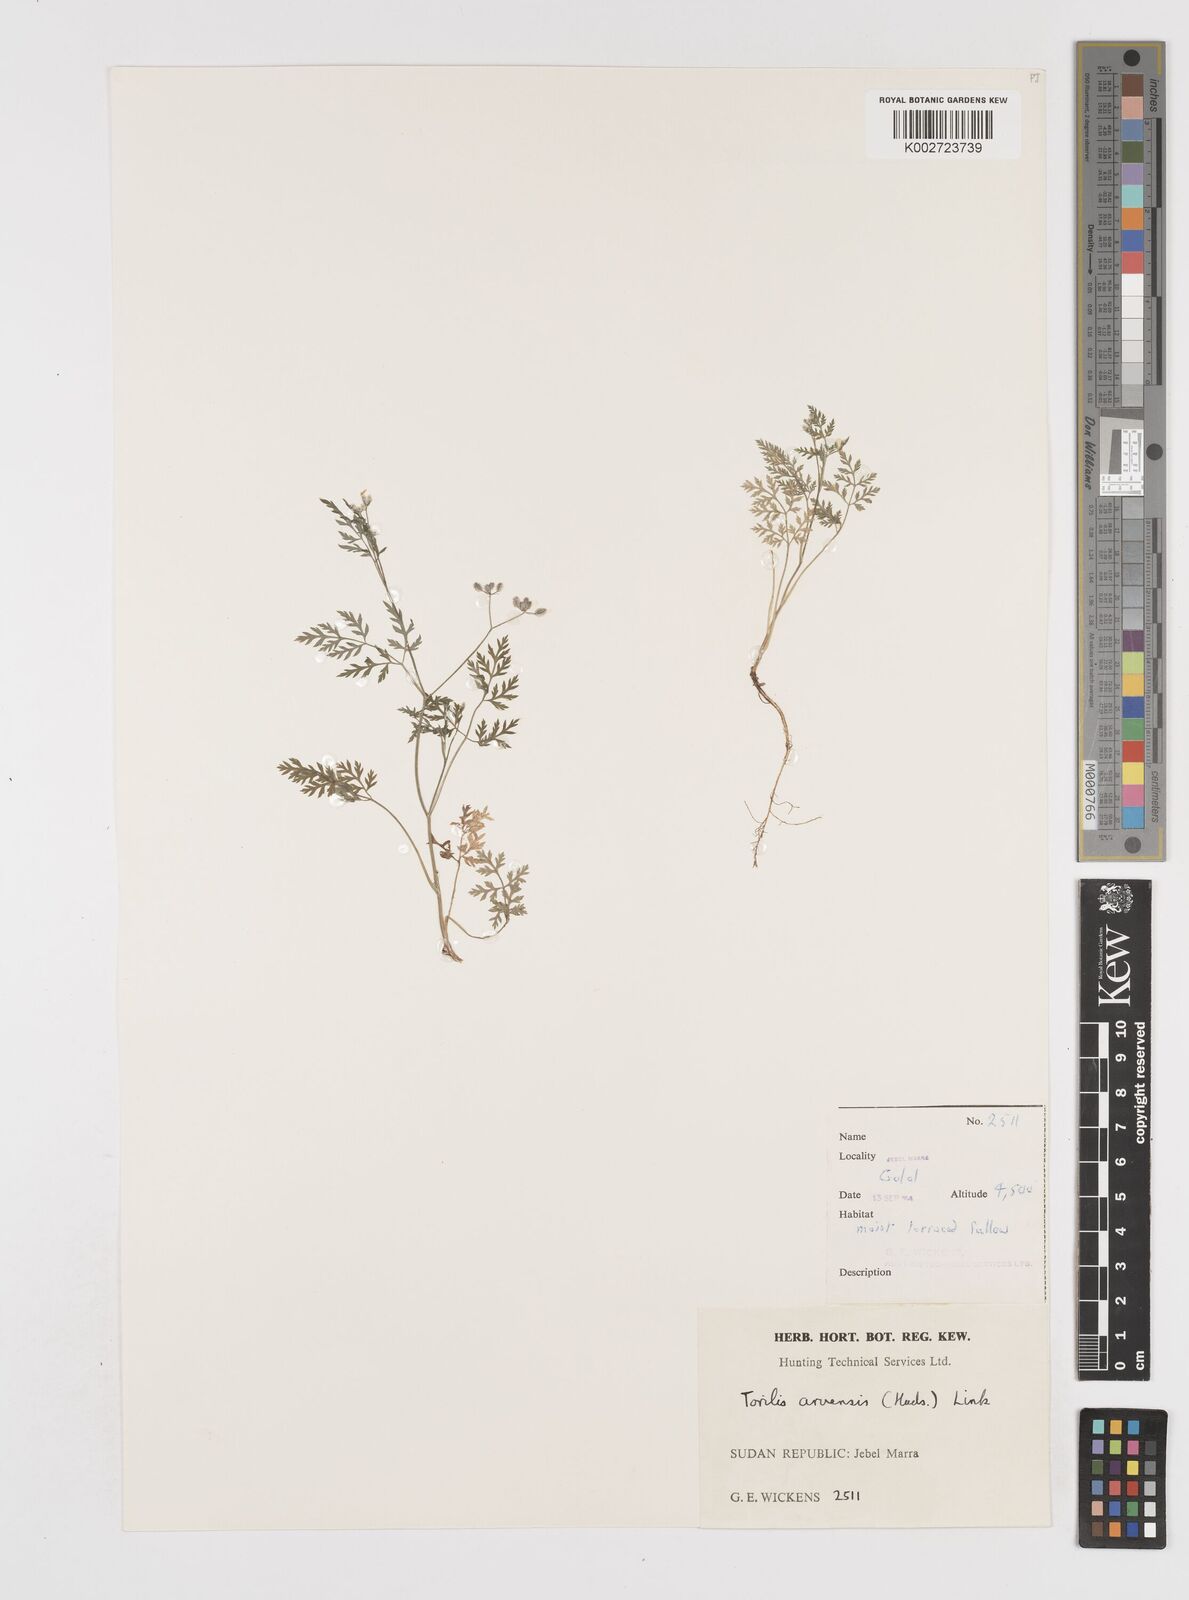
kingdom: Plantae
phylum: Tracheophyta
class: Magnoliopsida
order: Apiales
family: Apiaceae
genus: Torilis
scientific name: Torilis arvensis
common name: Spreading hedge-parsley
